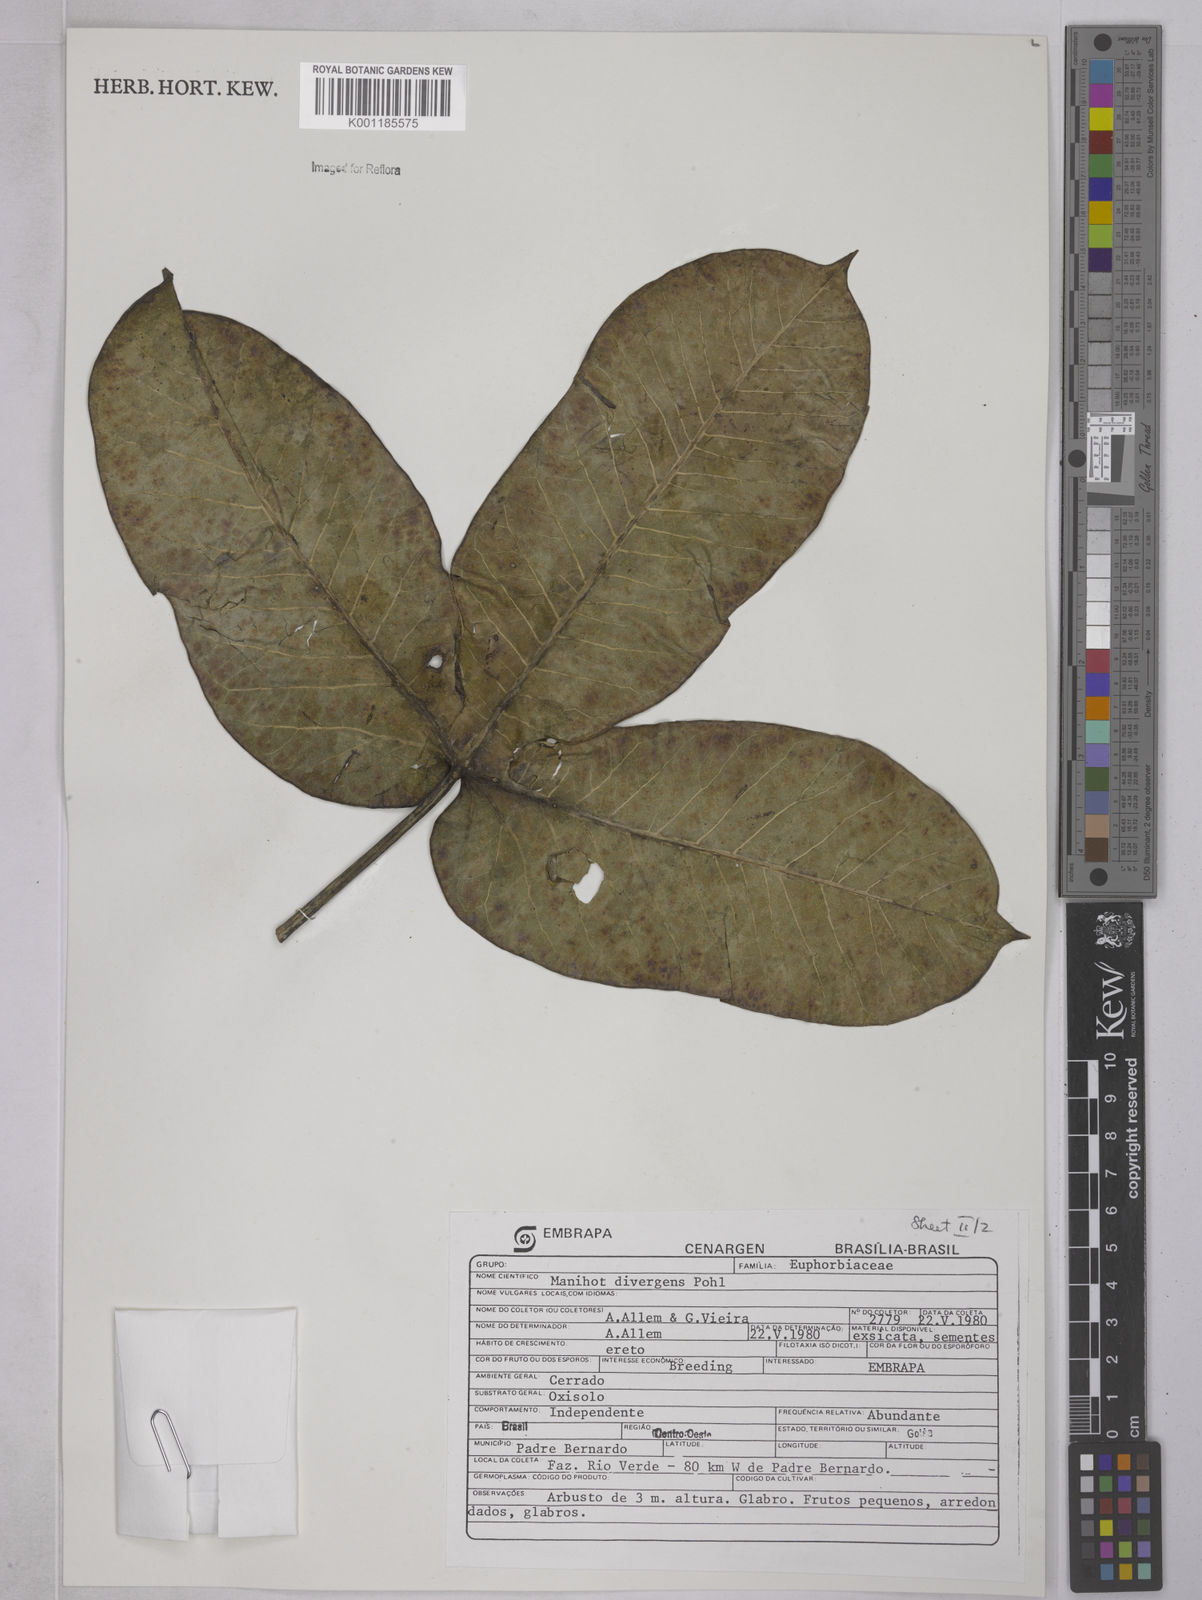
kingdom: Plantae
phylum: Tracheophyta
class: Magnoliopsida
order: Malpighiales
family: Euphorbiaceae
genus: Manihot
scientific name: Manihot divergens
